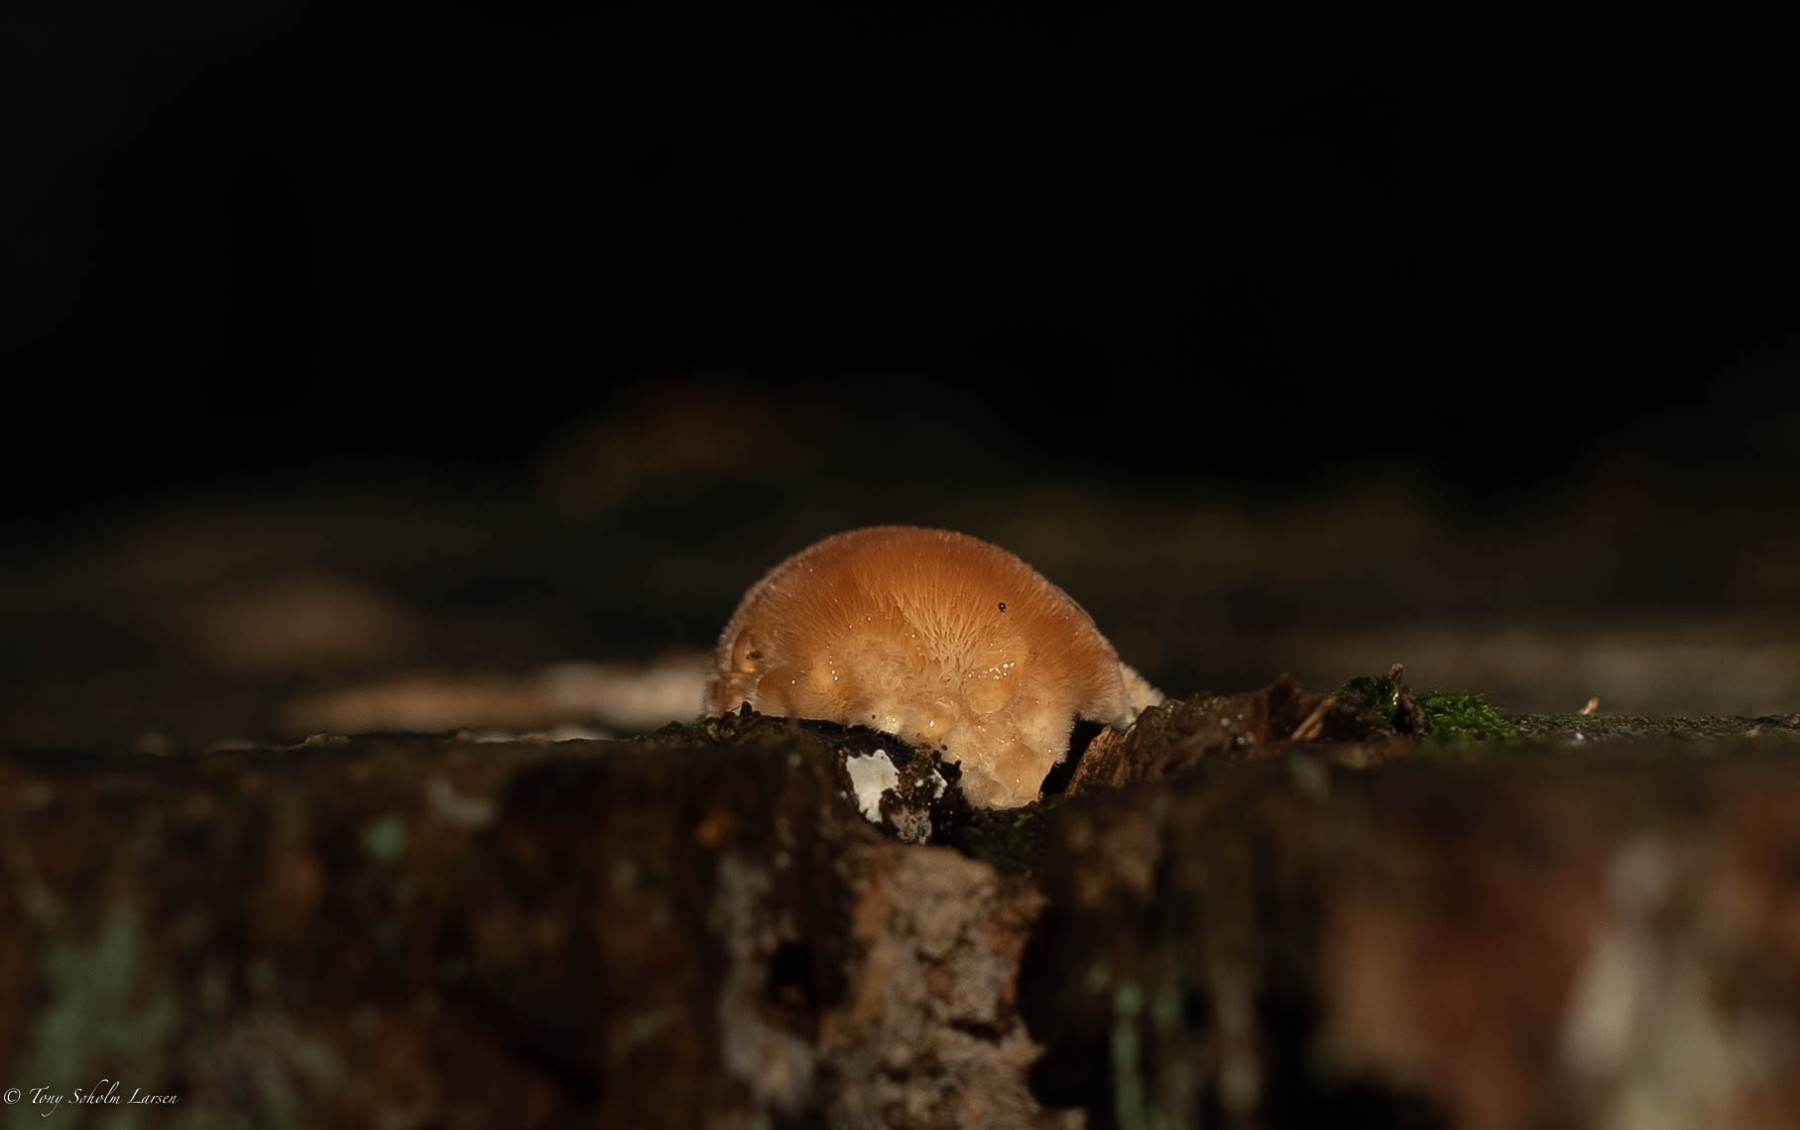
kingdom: Fungi
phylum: Basidiomycota
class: Agaricomycetes
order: Polyporales
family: Dacryobolaceae
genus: Postia
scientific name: Postia ptychogaster
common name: støvende kødporesvamp
